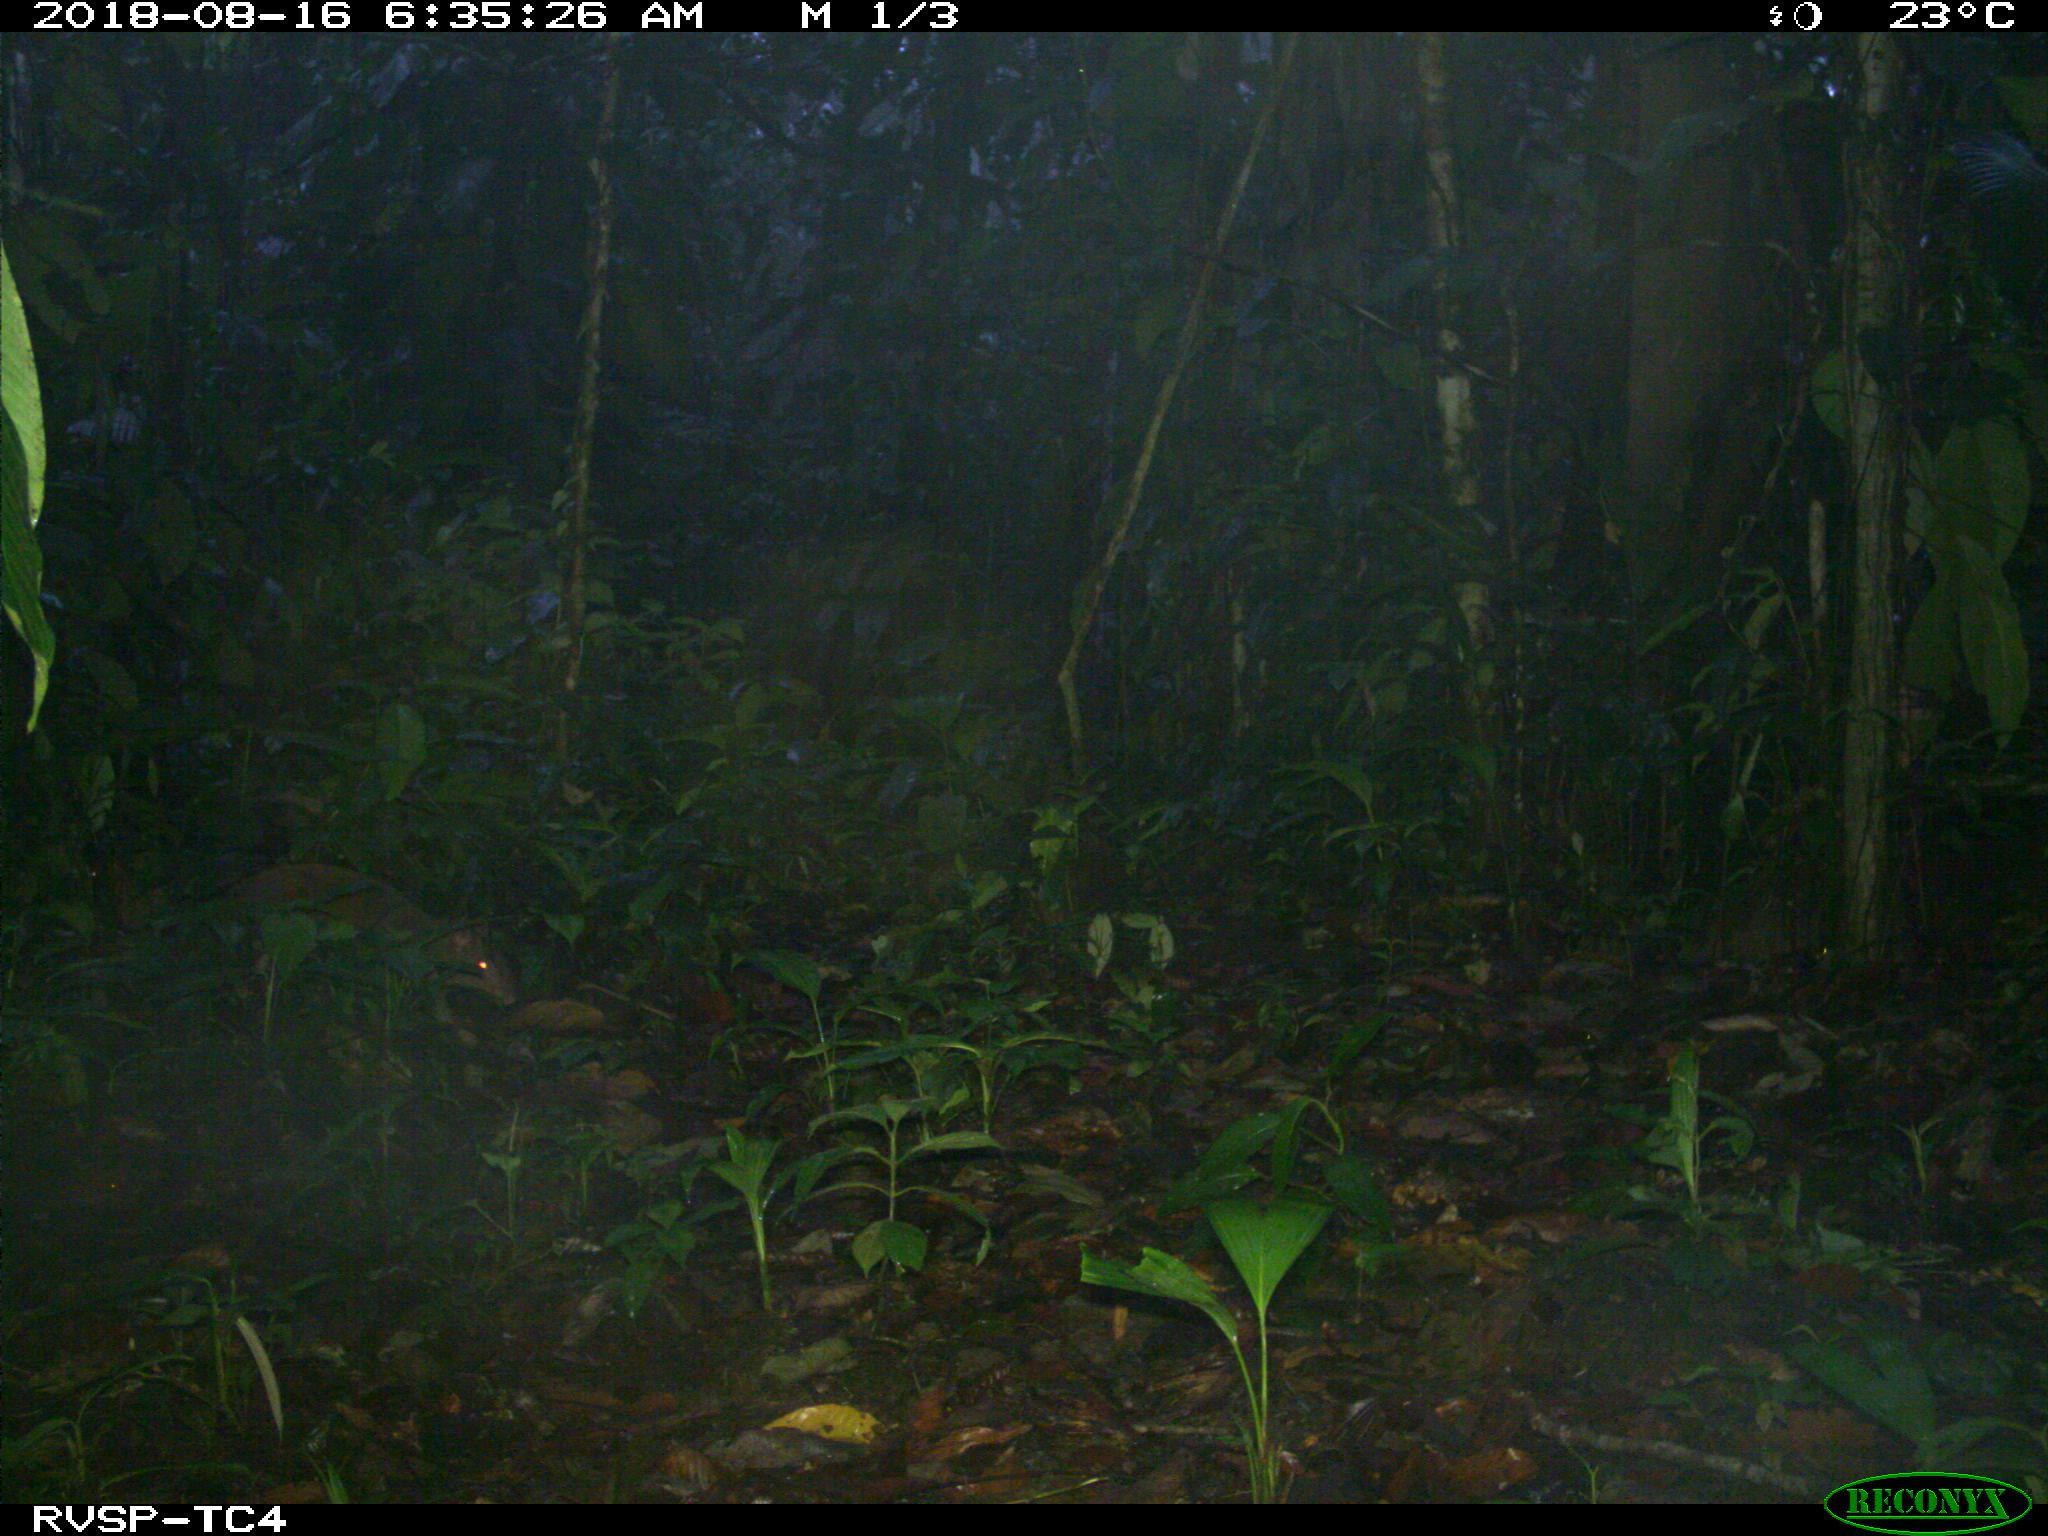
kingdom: Animalia
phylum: Chordata
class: Mammalia
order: Rodentia
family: Dasyproctidae
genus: Dasyprocta
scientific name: Dasyprocta punctata
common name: Central american agouti
